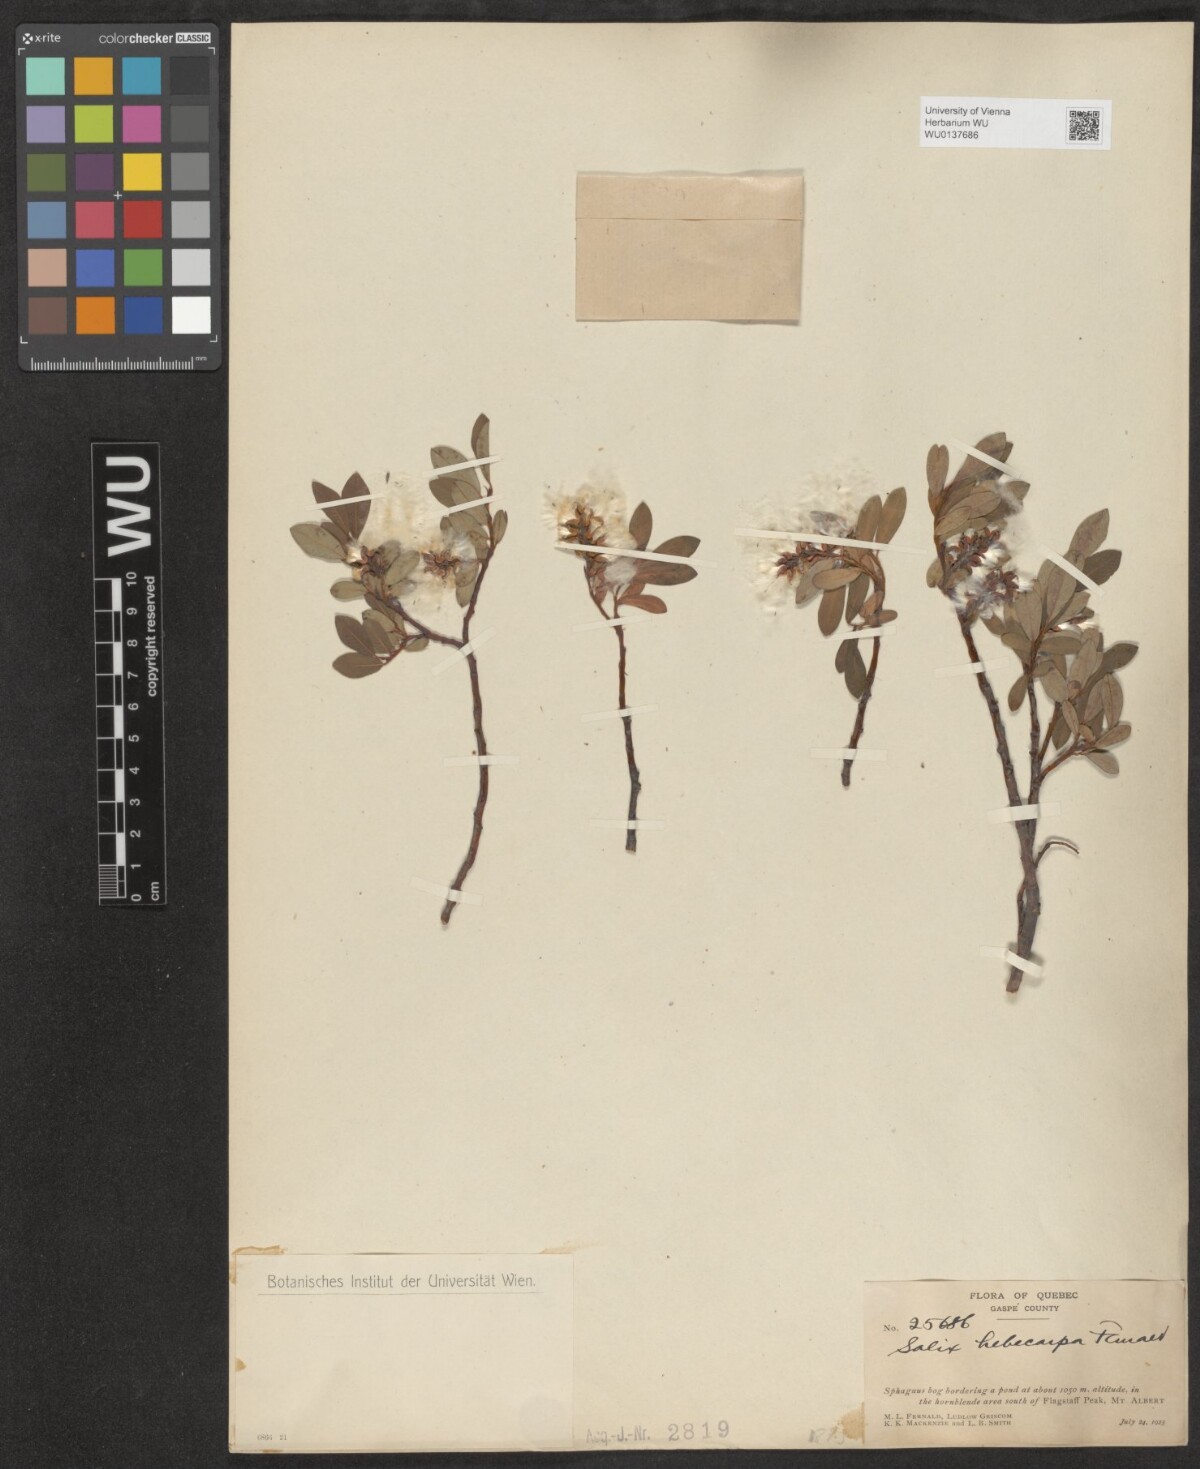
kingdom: Plantae
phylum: Tracheophyta
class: Magnoliopsida
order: Malpighiales
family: Salicaceae
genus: Salix
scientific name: Salix hebecarpa
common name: Mt. albert willow
